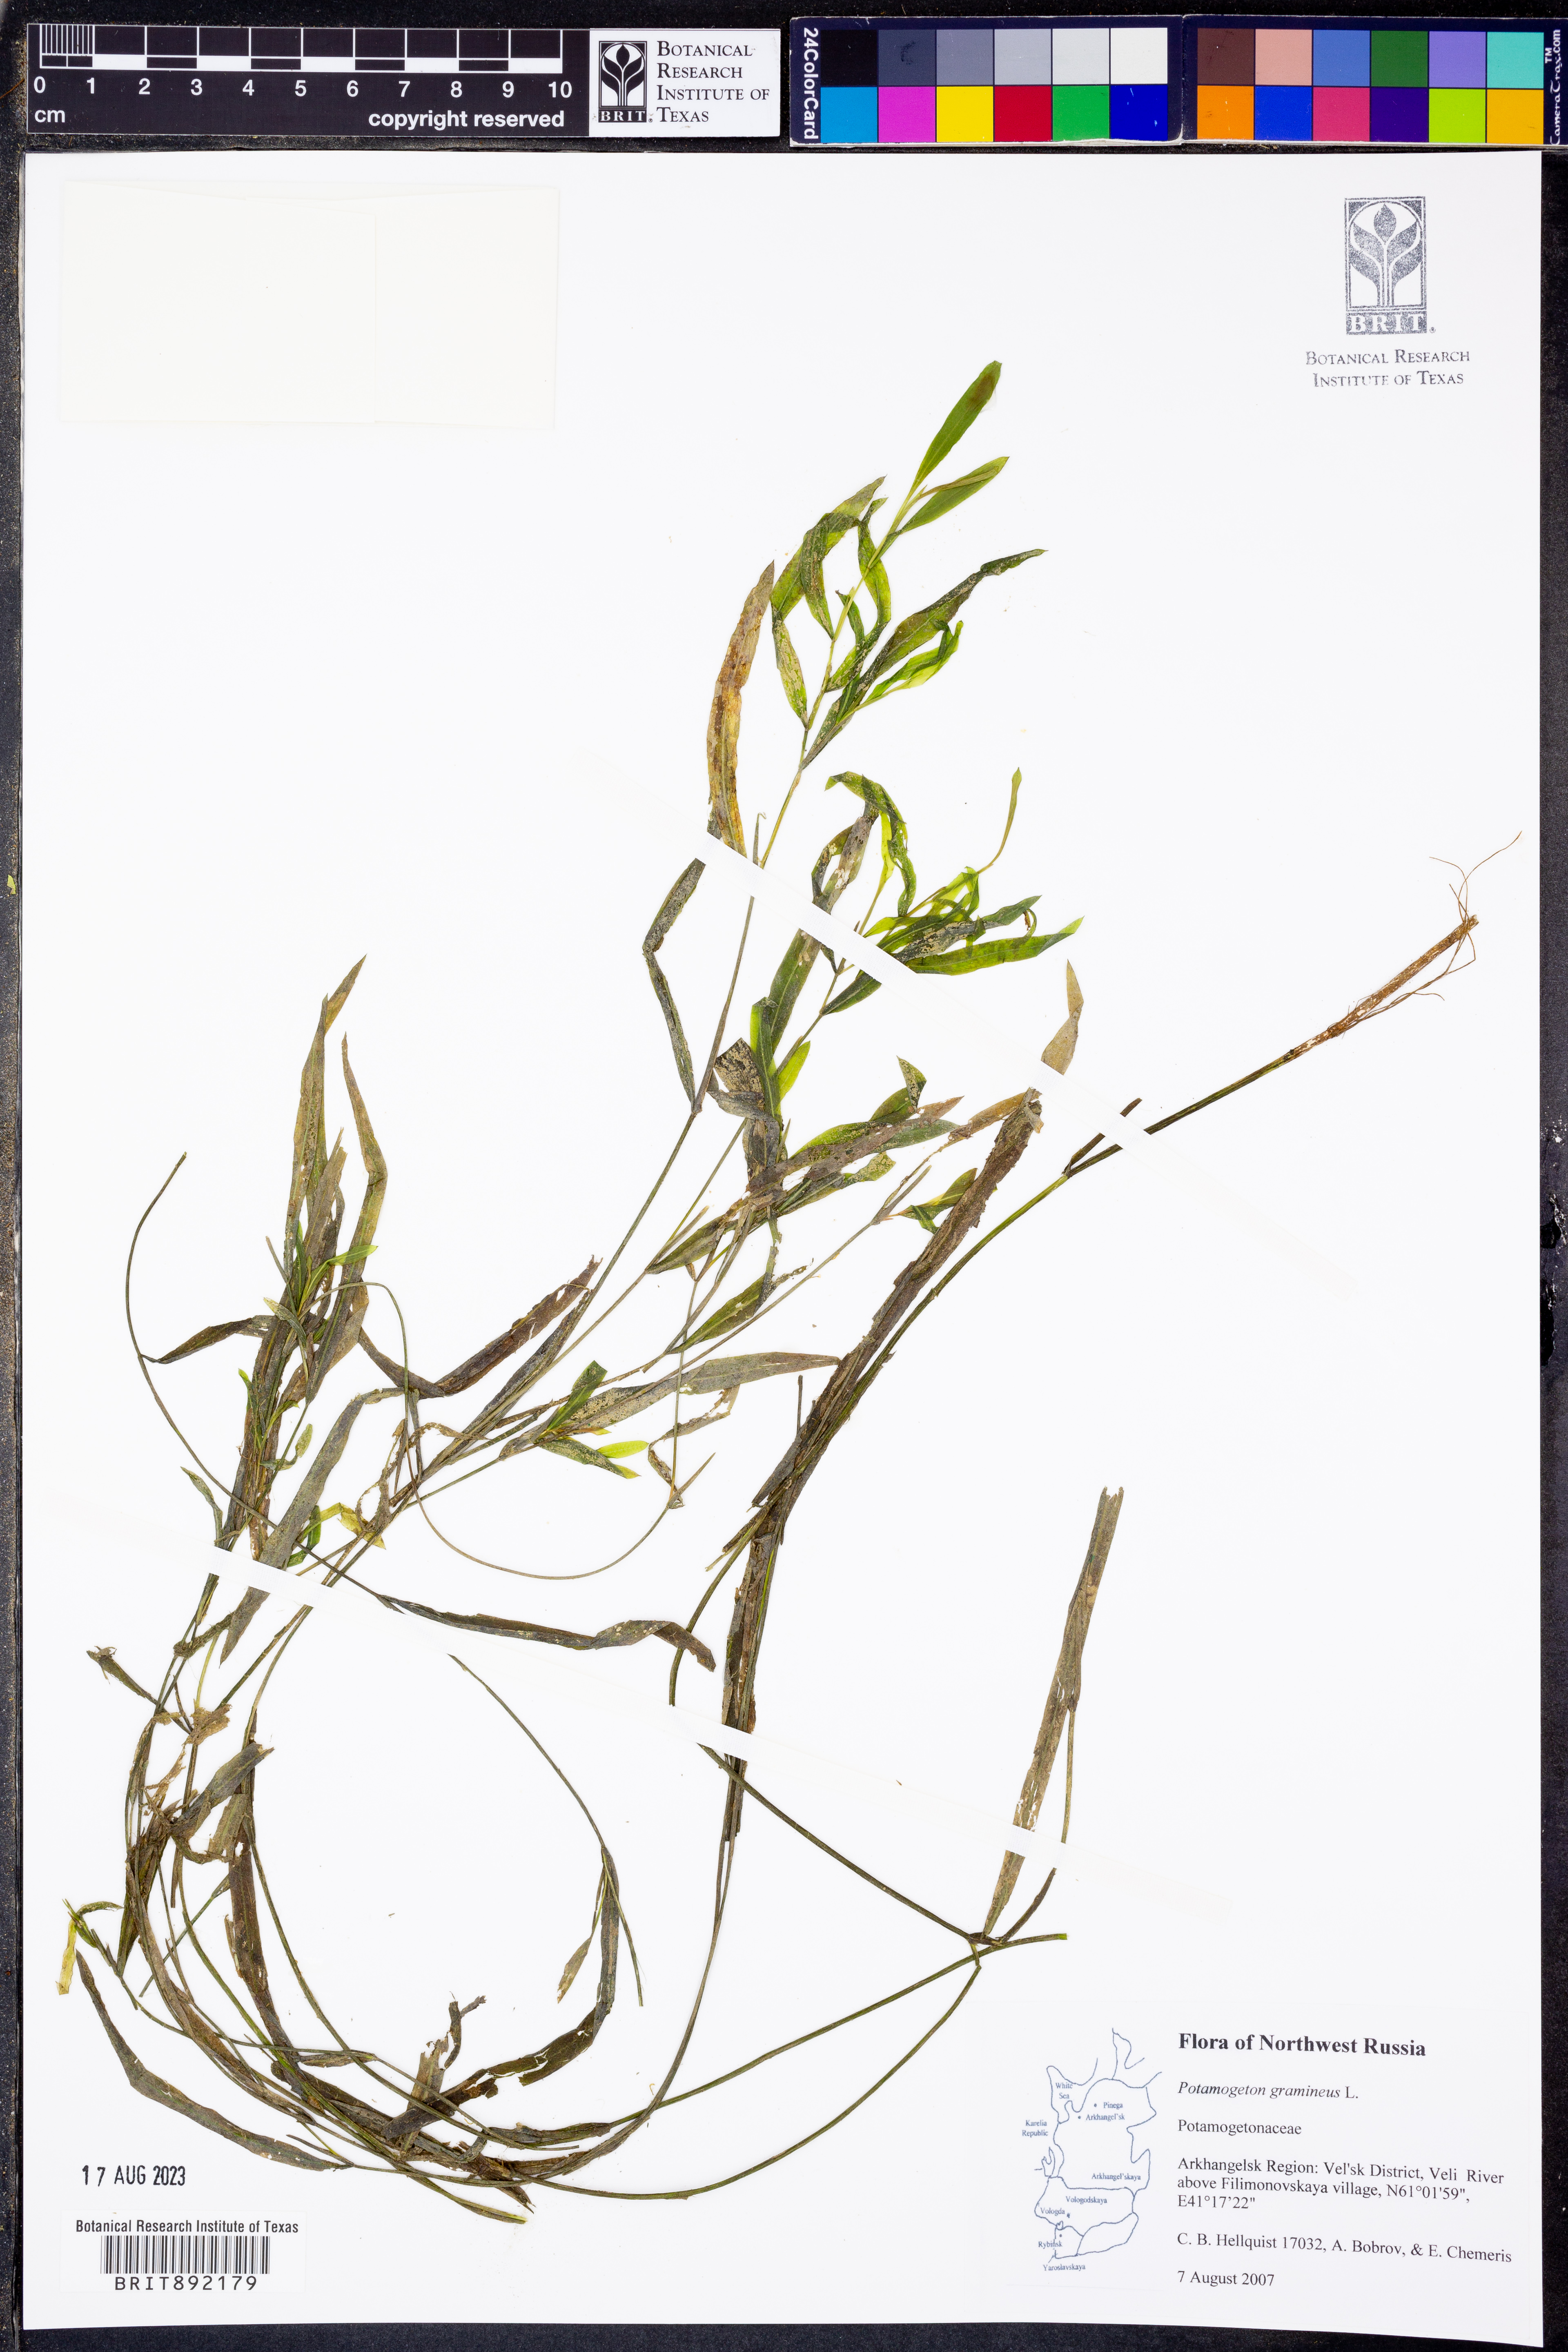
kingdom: Plantae
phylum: Tracheophyta
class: Liliopsida
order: Alismatales
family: Potamogetonaceae
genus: Potamogeton
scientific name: Potamogeton gramineus
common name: Various-leaved pondweed
